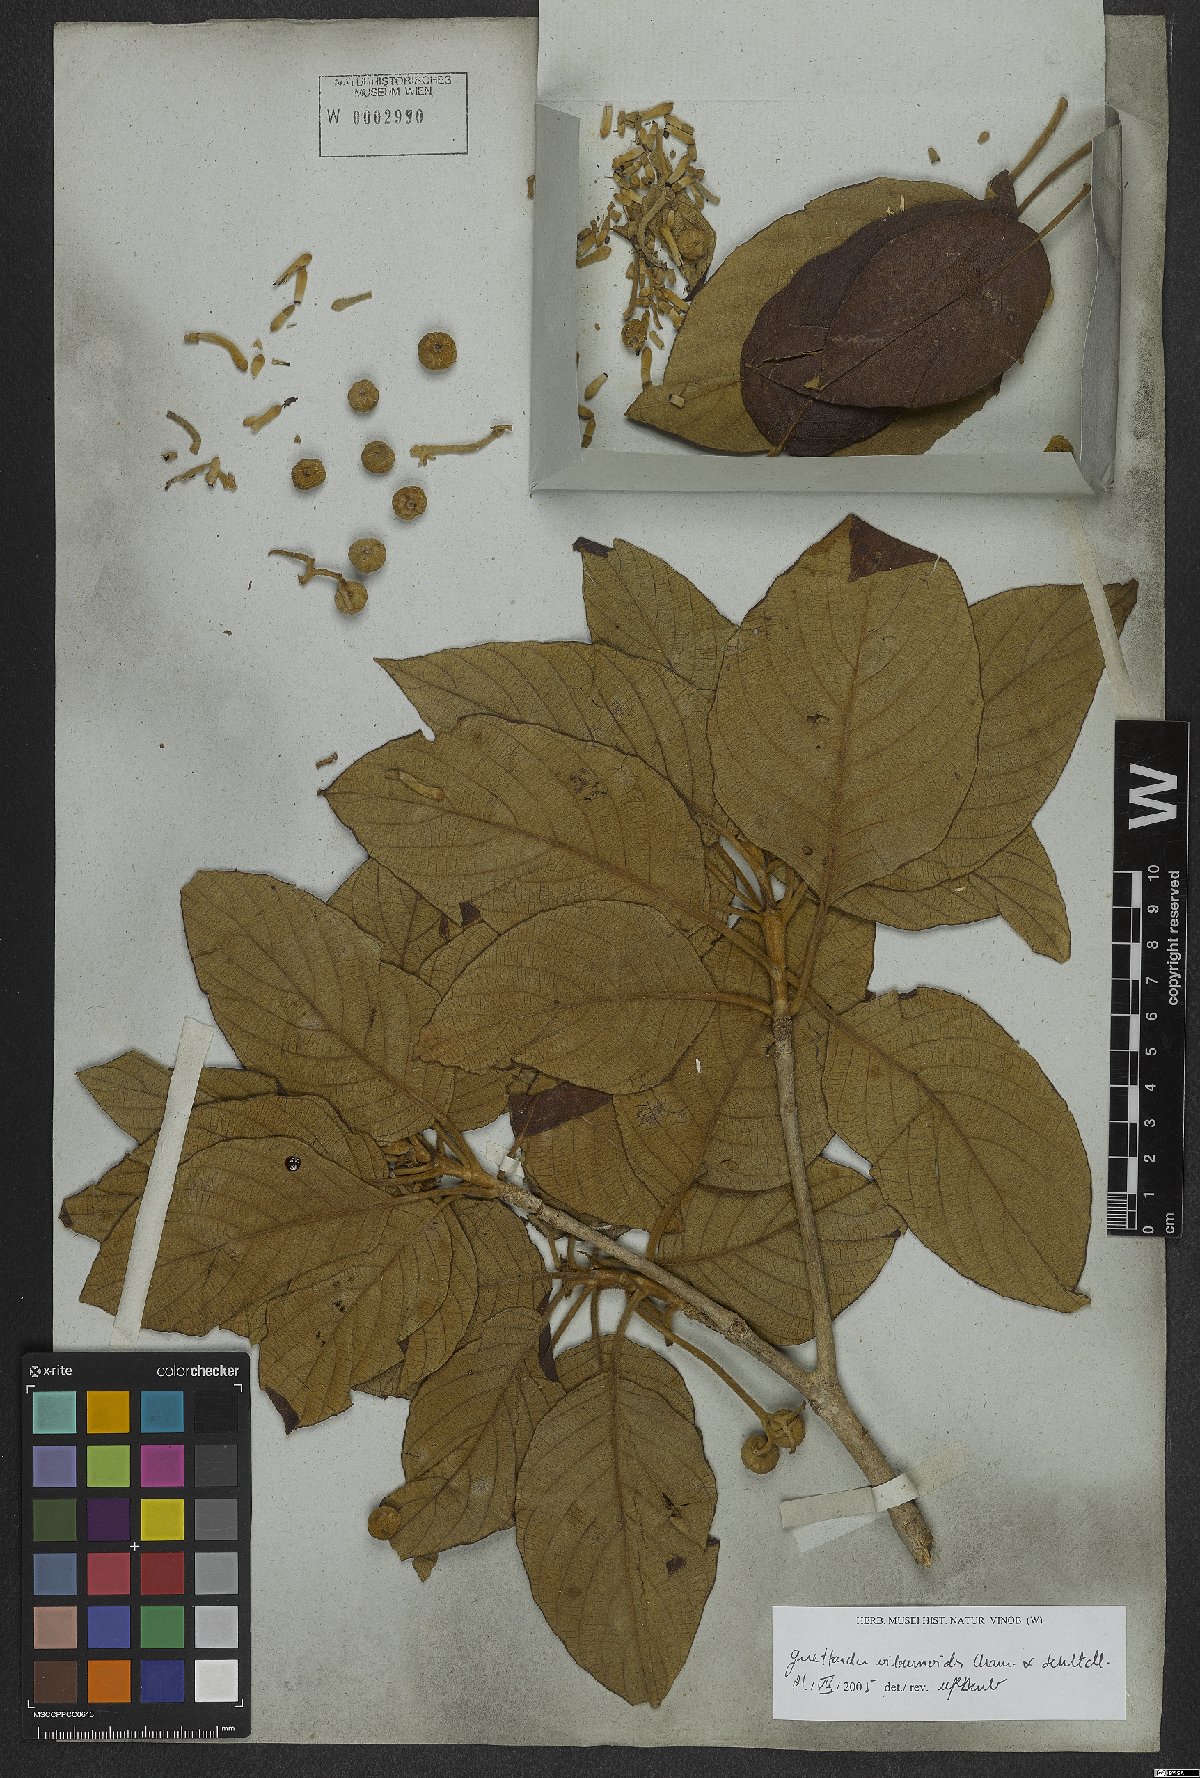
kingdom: Plantae
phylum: Tracheophyta
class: Magnoliopsida
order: Gentianales
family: Rubiaceae
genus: Guettarda
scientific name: Guettarda viburnoides
